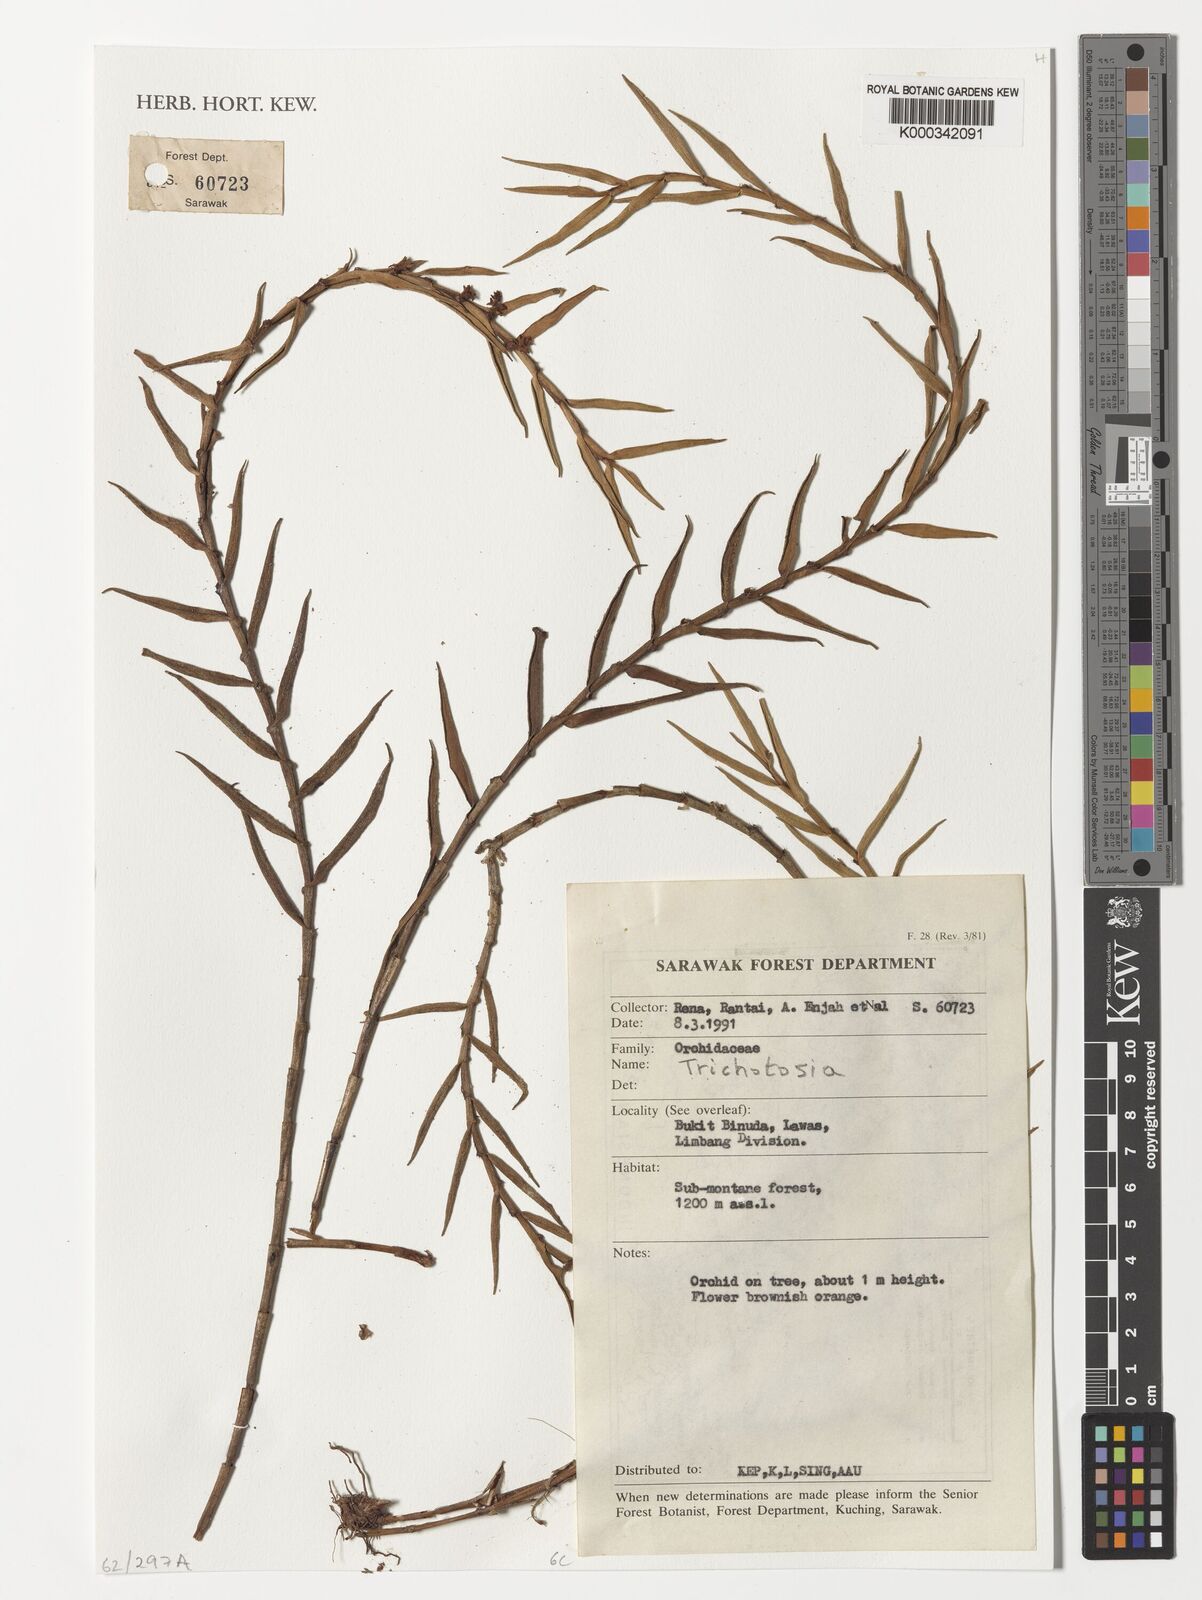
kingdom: Plantae
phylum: Tracheophyta
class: Liliopsida
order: Asparagales
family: Orchidaceae
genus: Trichotosia
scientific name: Trichotosia
